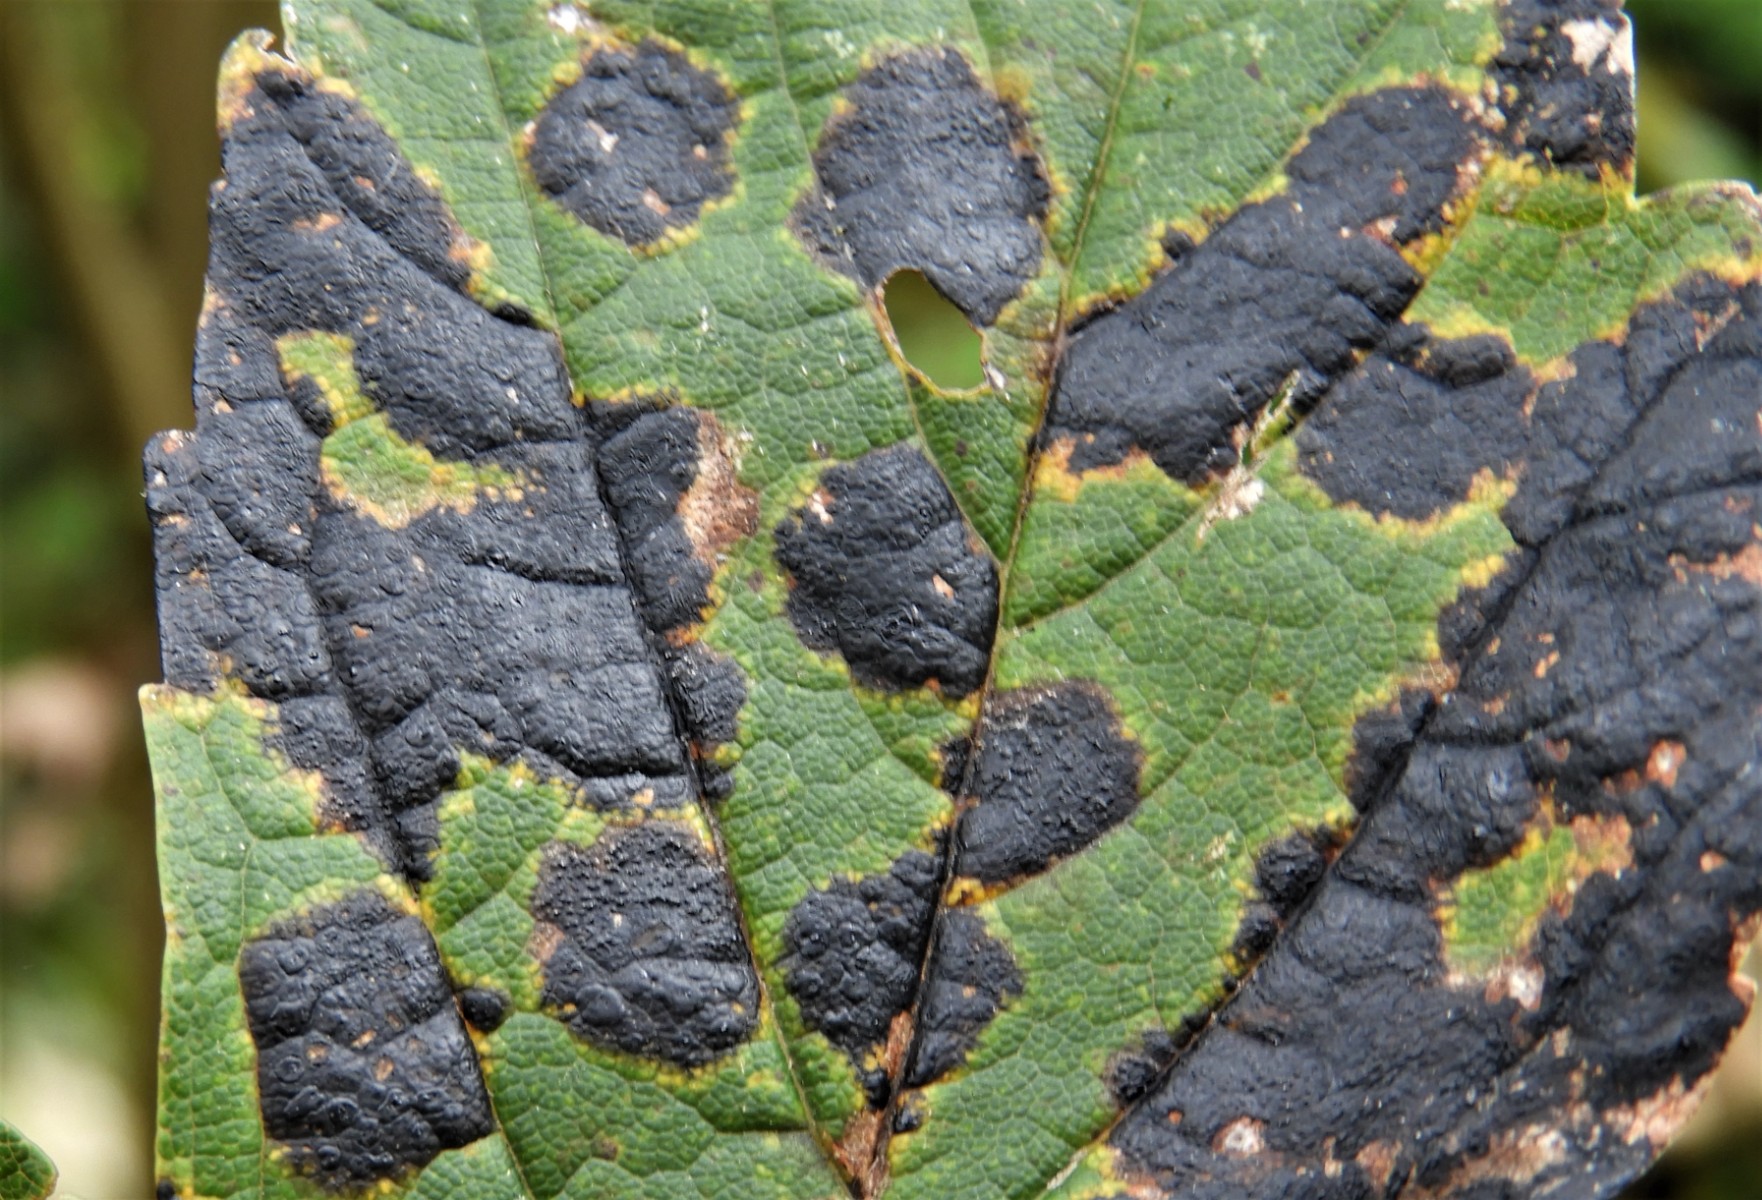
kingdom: Fungi
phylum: Ascomycota
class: Leotiomycetes
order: Rhytismatales
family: Rhytismataceae
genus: Rhytisma
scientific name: Rhytisma acerinum
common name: ahorn-rynkeplet
